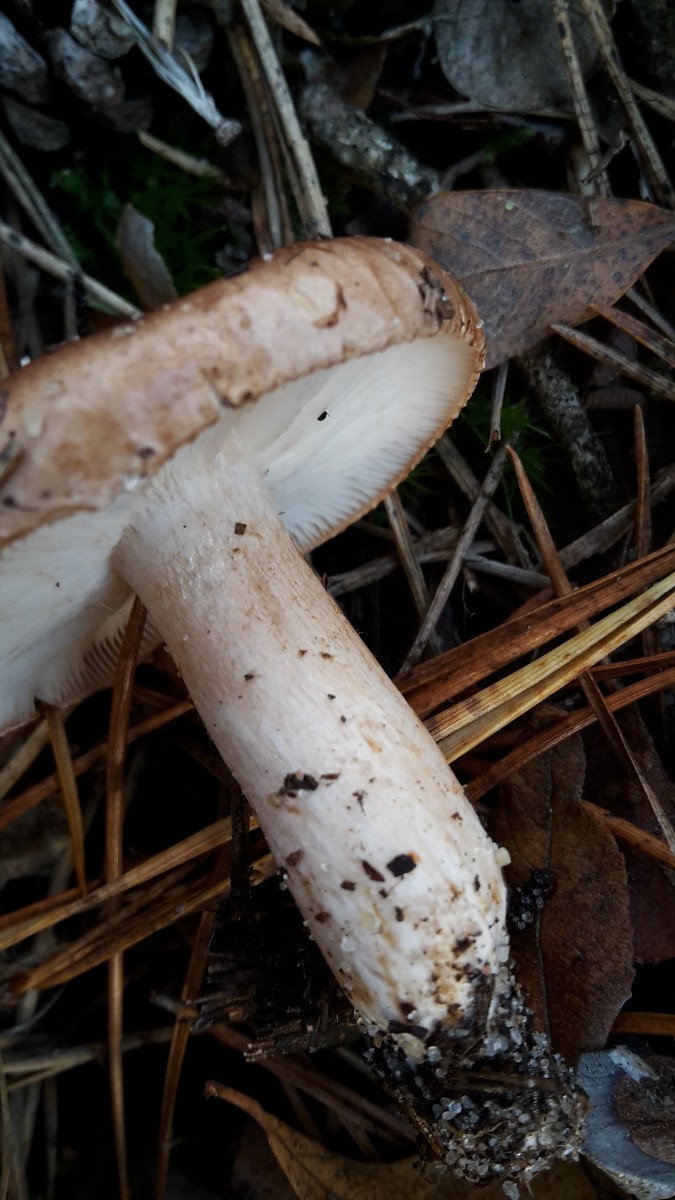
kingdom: Fungi
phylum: Basidiomycota
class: Agaricomycetes
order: Agaricales
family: Tricholomataceae
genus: Tricholoma
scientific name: Tricholoma albobrunneum
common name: kastanie-ridderhat
